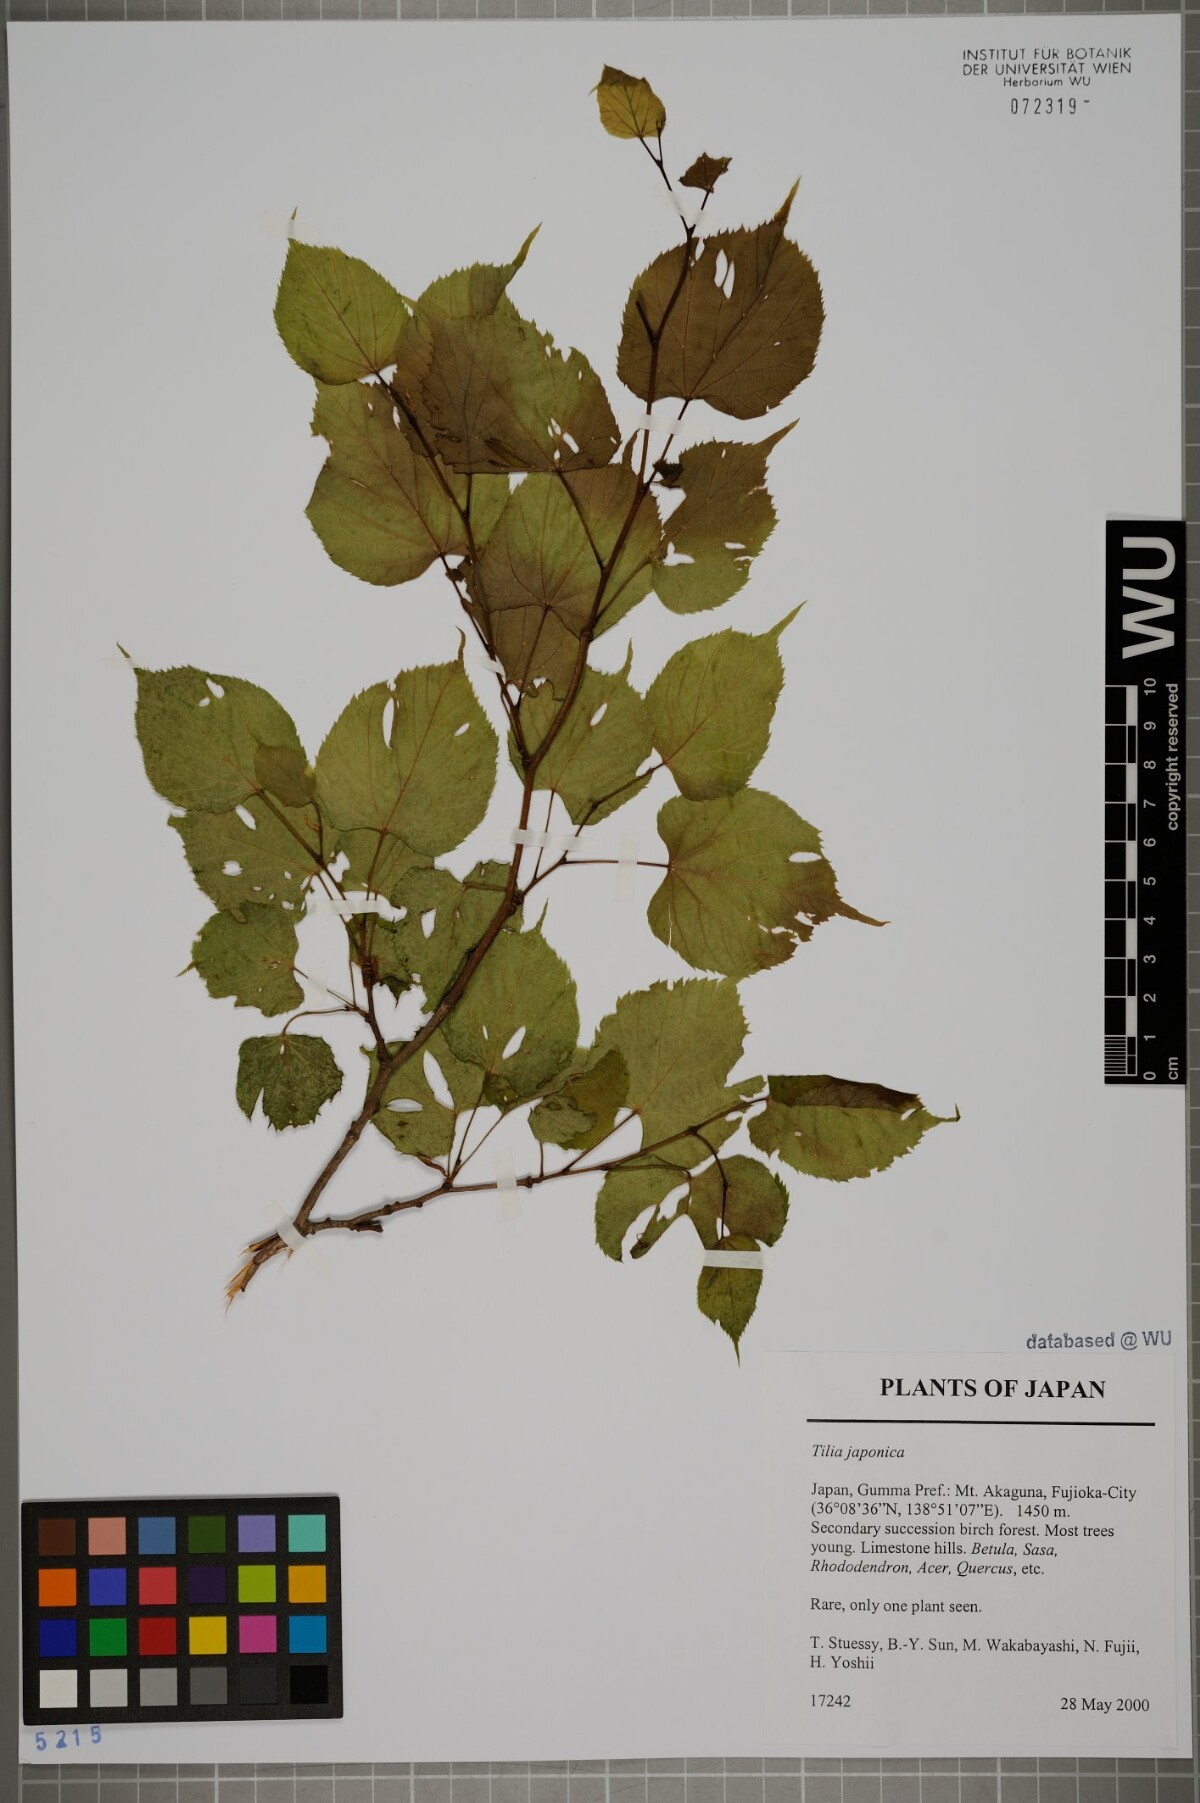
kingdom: Plantae
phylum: Tracheophyta
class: Magnoliopsida
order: Malvales
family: Malvaceae
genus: Tilia
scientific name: Tilia japonica
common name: Japanese lime
